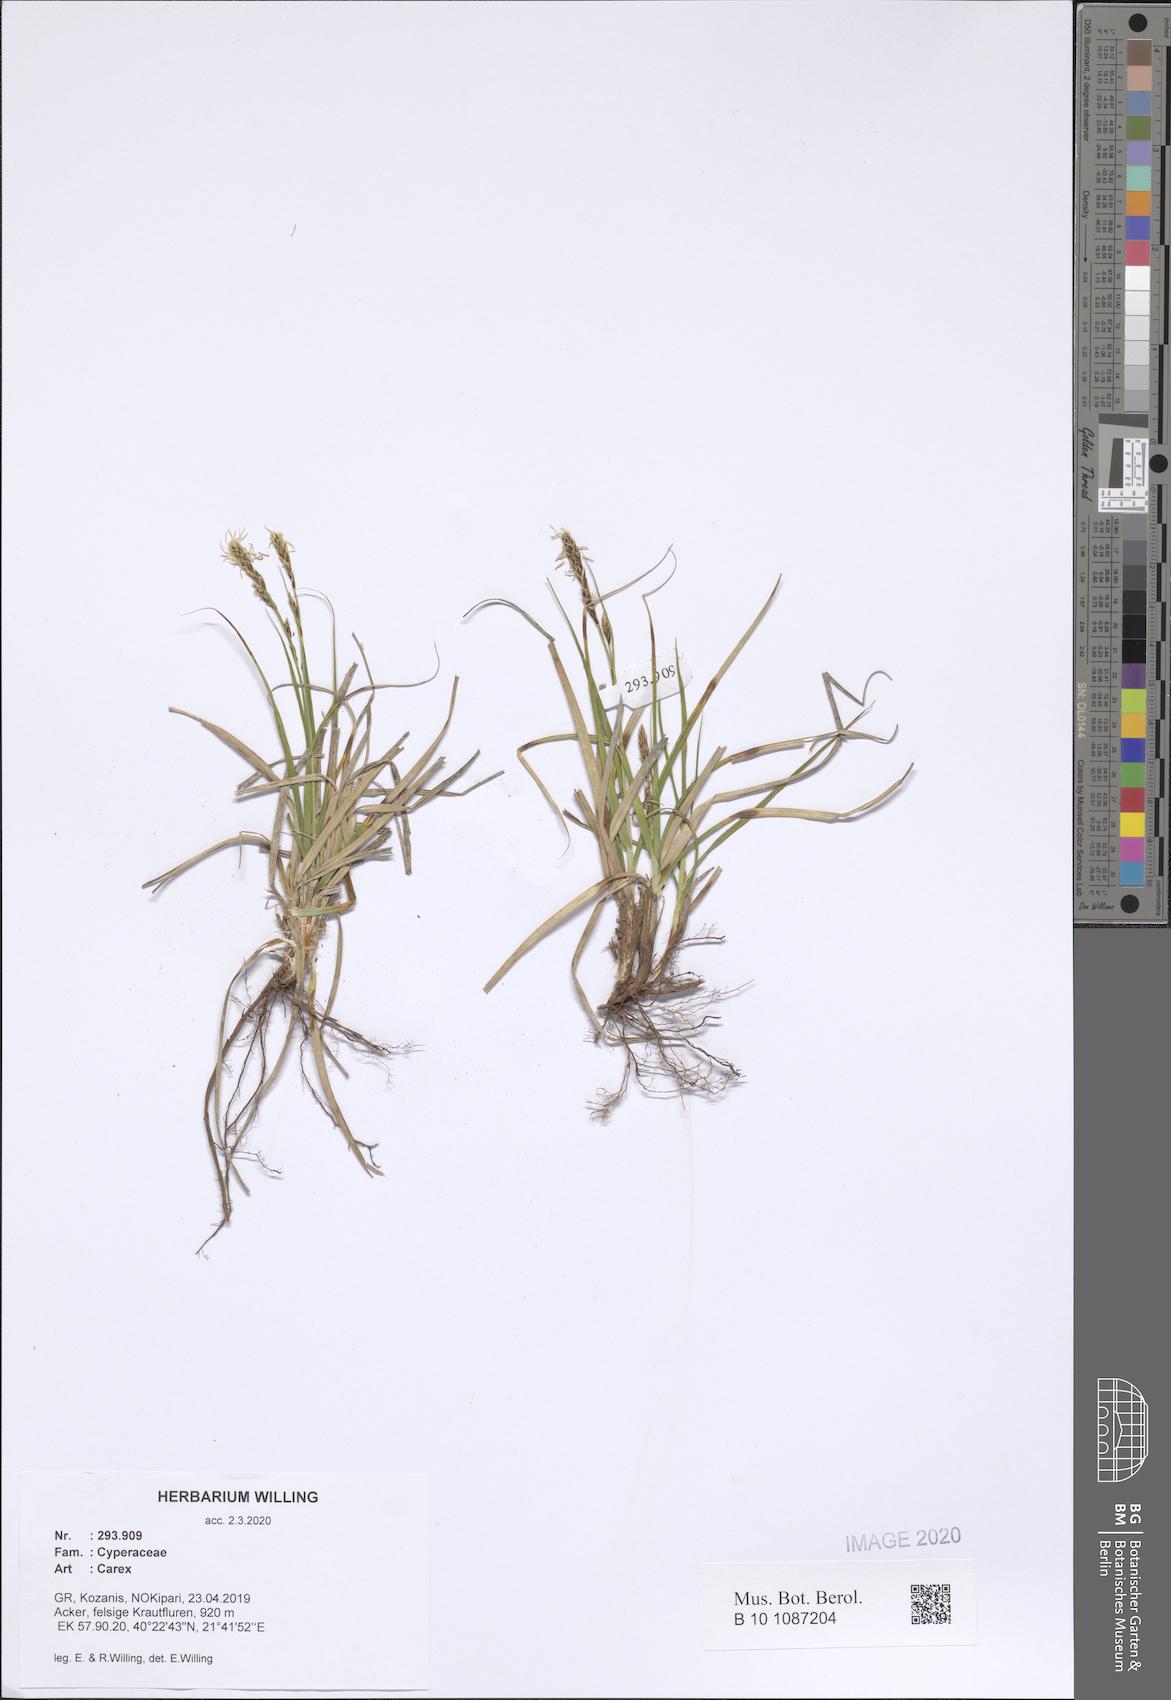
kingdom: Plantae
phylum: Tracheophyta
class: Liliopsida
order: Poales
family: Cyperaceae
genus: Carex
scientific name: Carex
